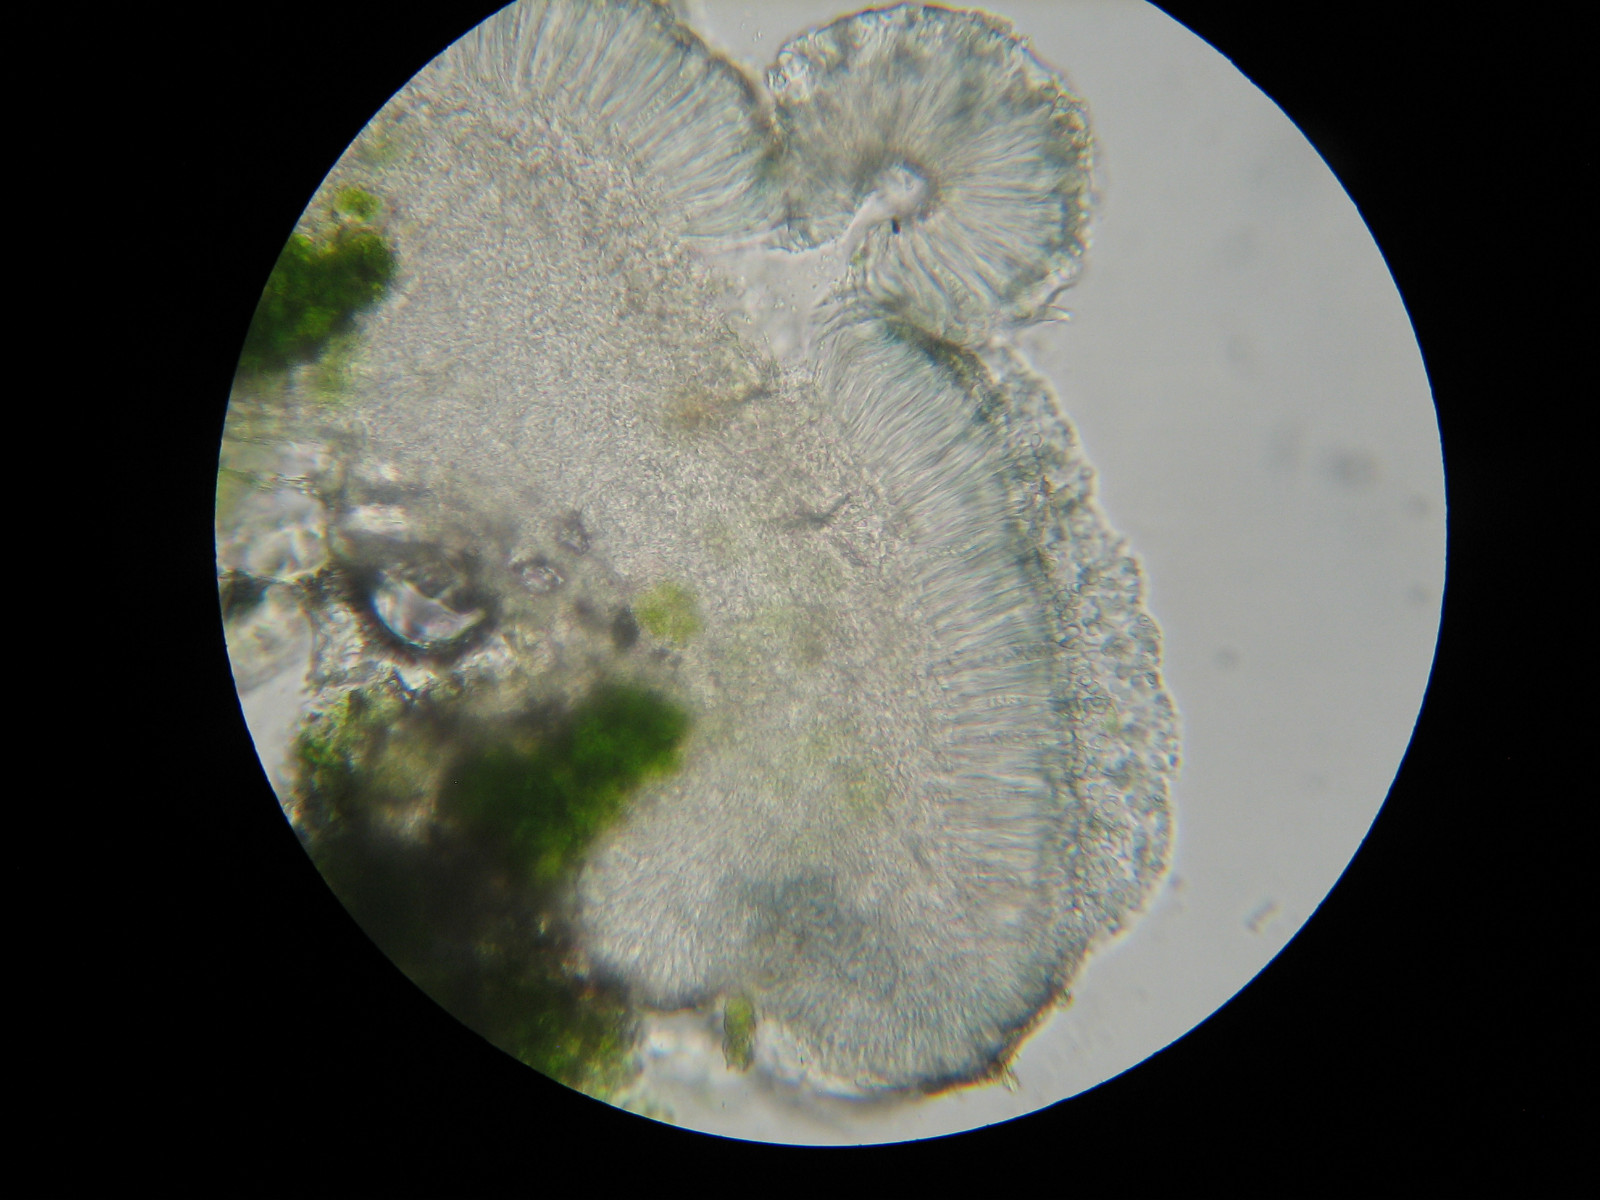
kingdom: Fungi
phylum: Ascomycota
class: Lecanoromycetes
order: Lecanorales
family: Ramalinaceae
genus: Bacidina
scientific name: Bacidina
